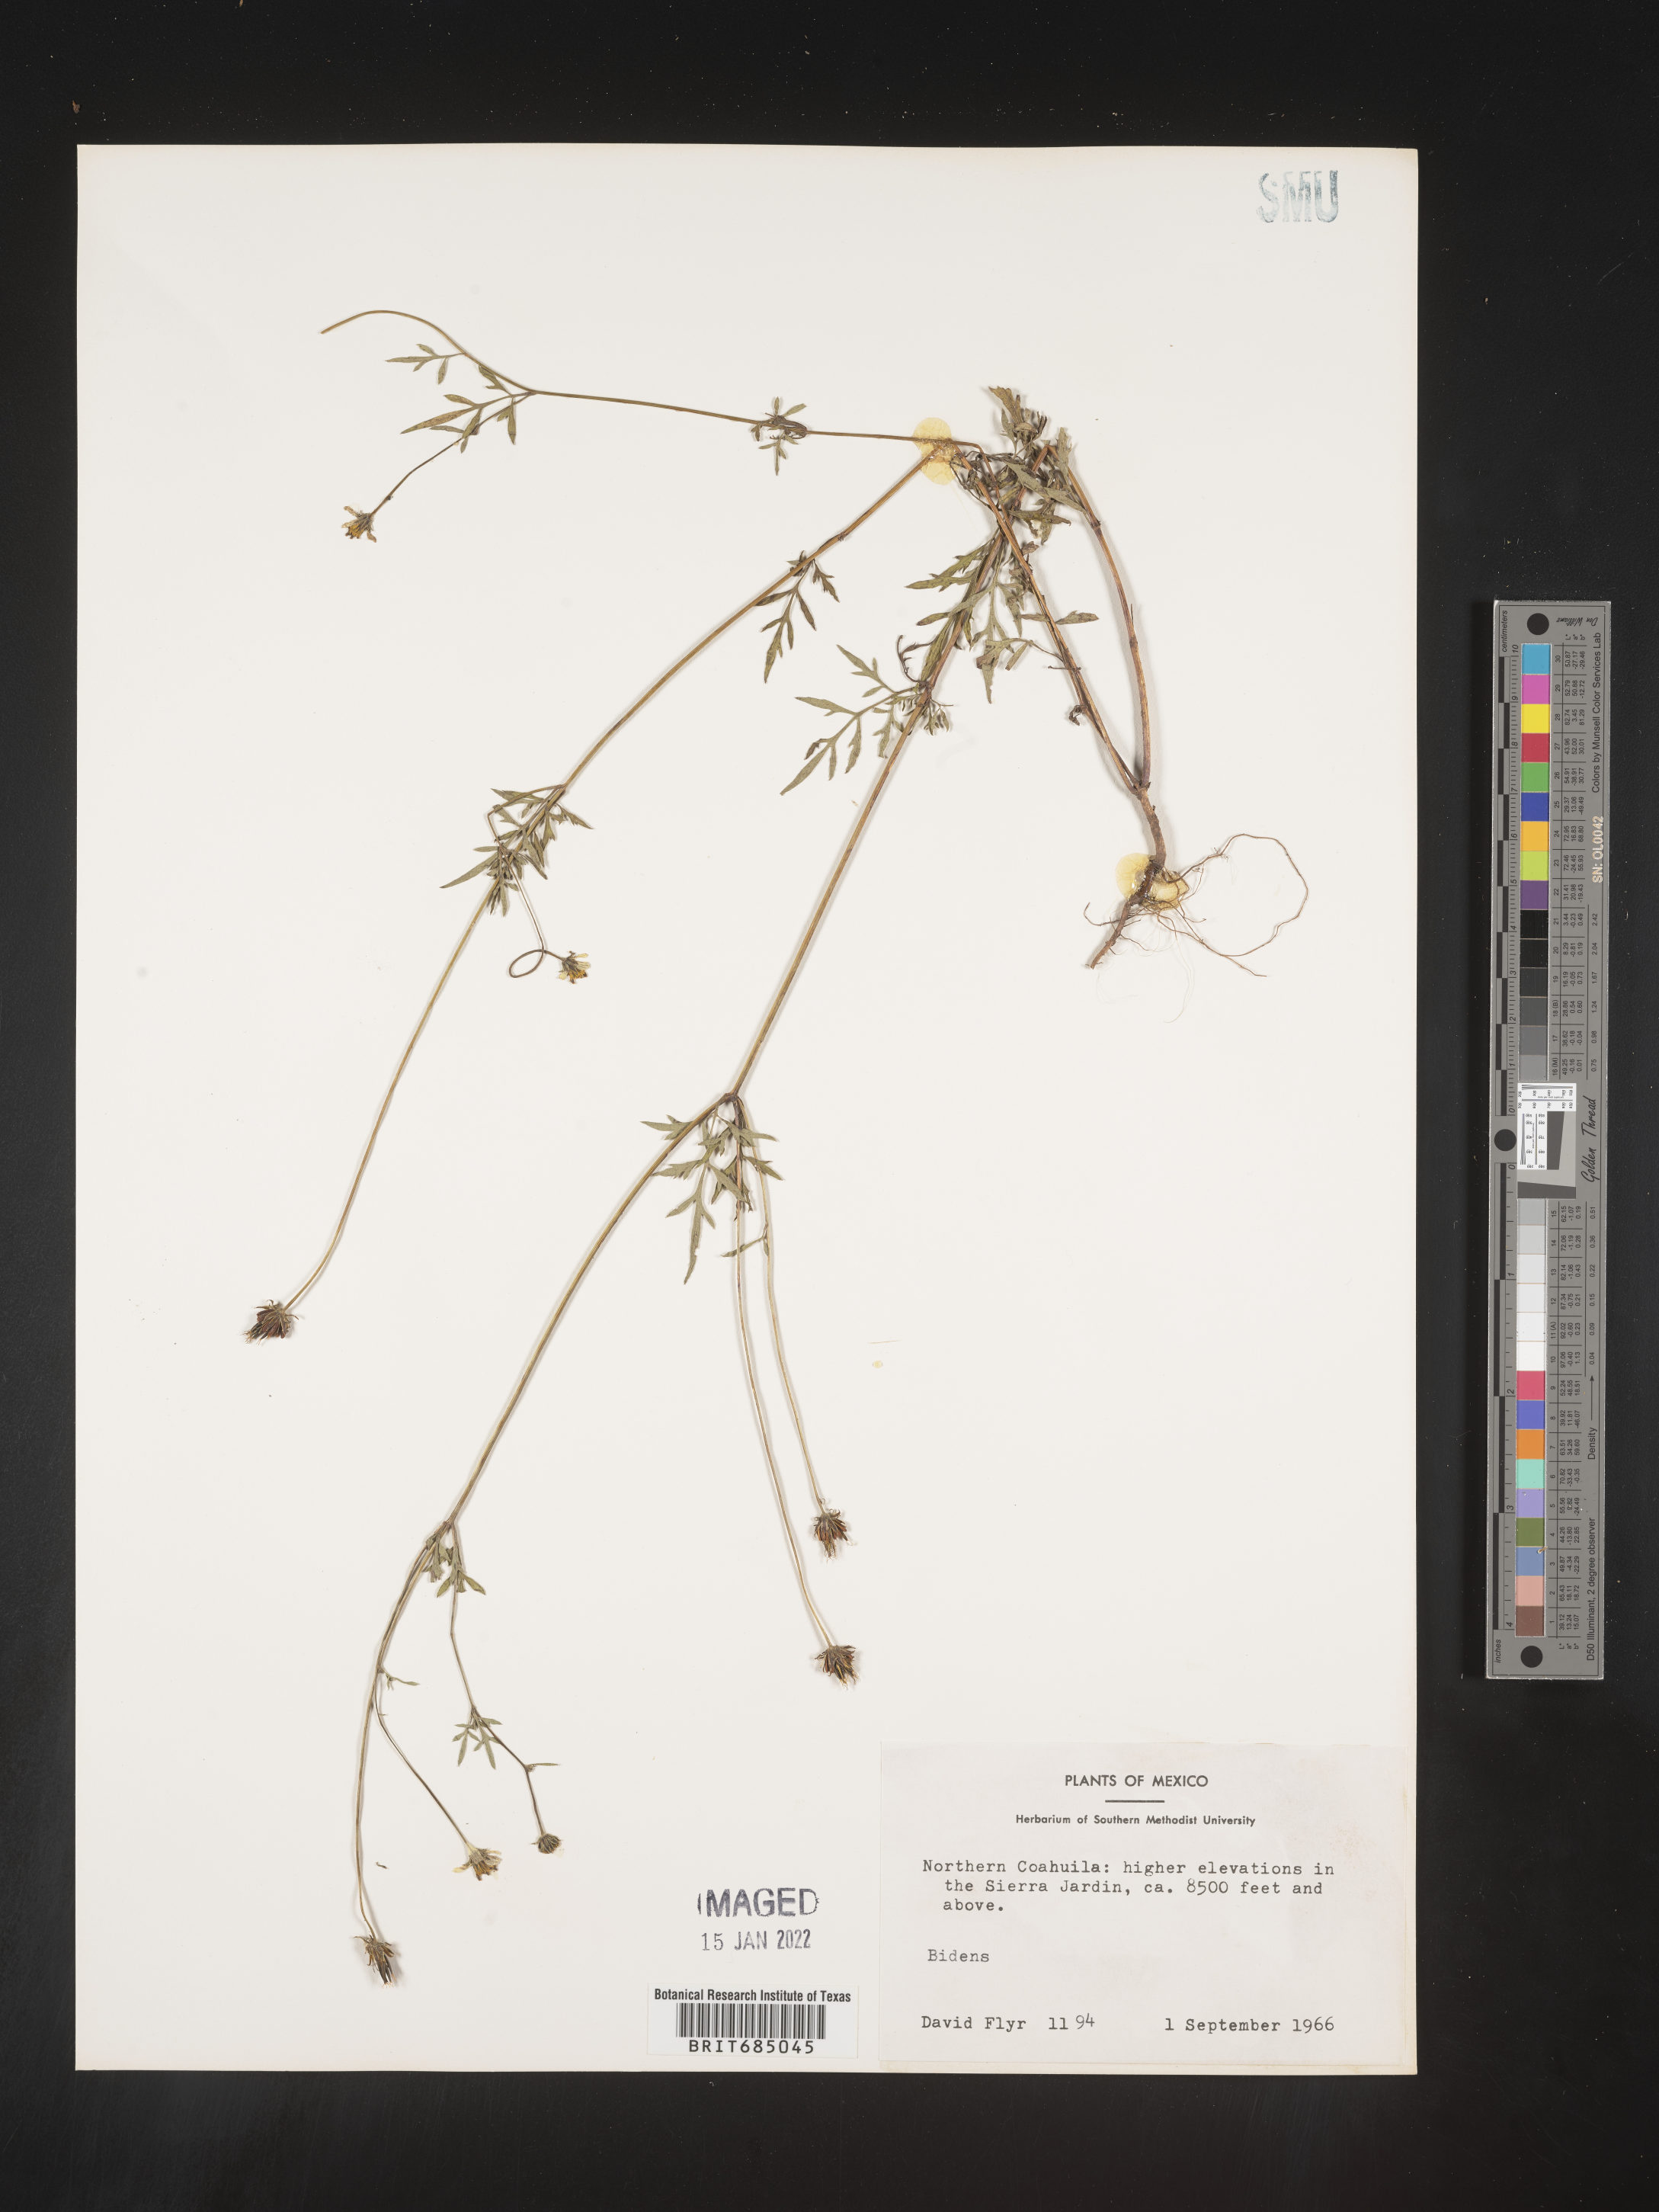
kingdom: Plantae
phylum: Tracheophyta
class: Magnoliopsida
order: Asterales
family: Asteraceae
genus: Bidens
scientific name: Bidens
